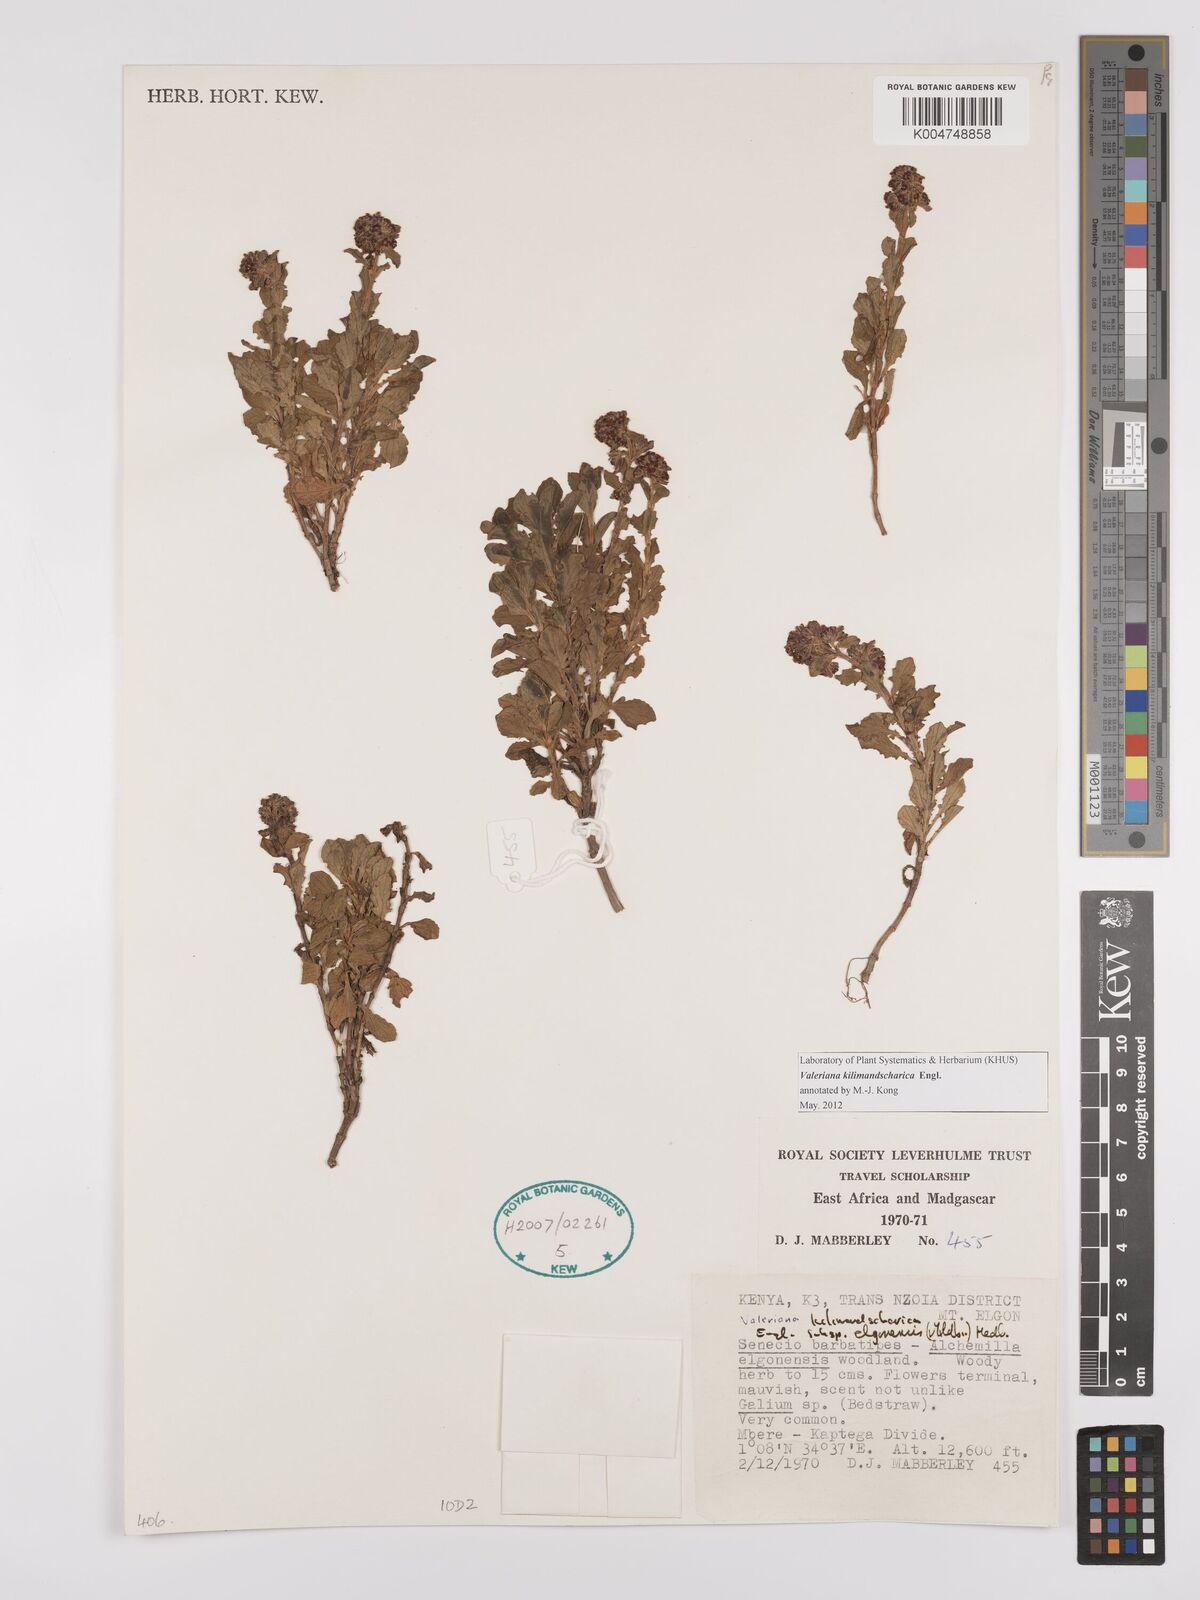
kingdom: Plantae
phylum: Tracheophyta
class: Magnoliopsida
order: Dipsacales
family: Caprifoliaceae
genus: Valeriana
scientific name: Valeriana kilimandscharica
